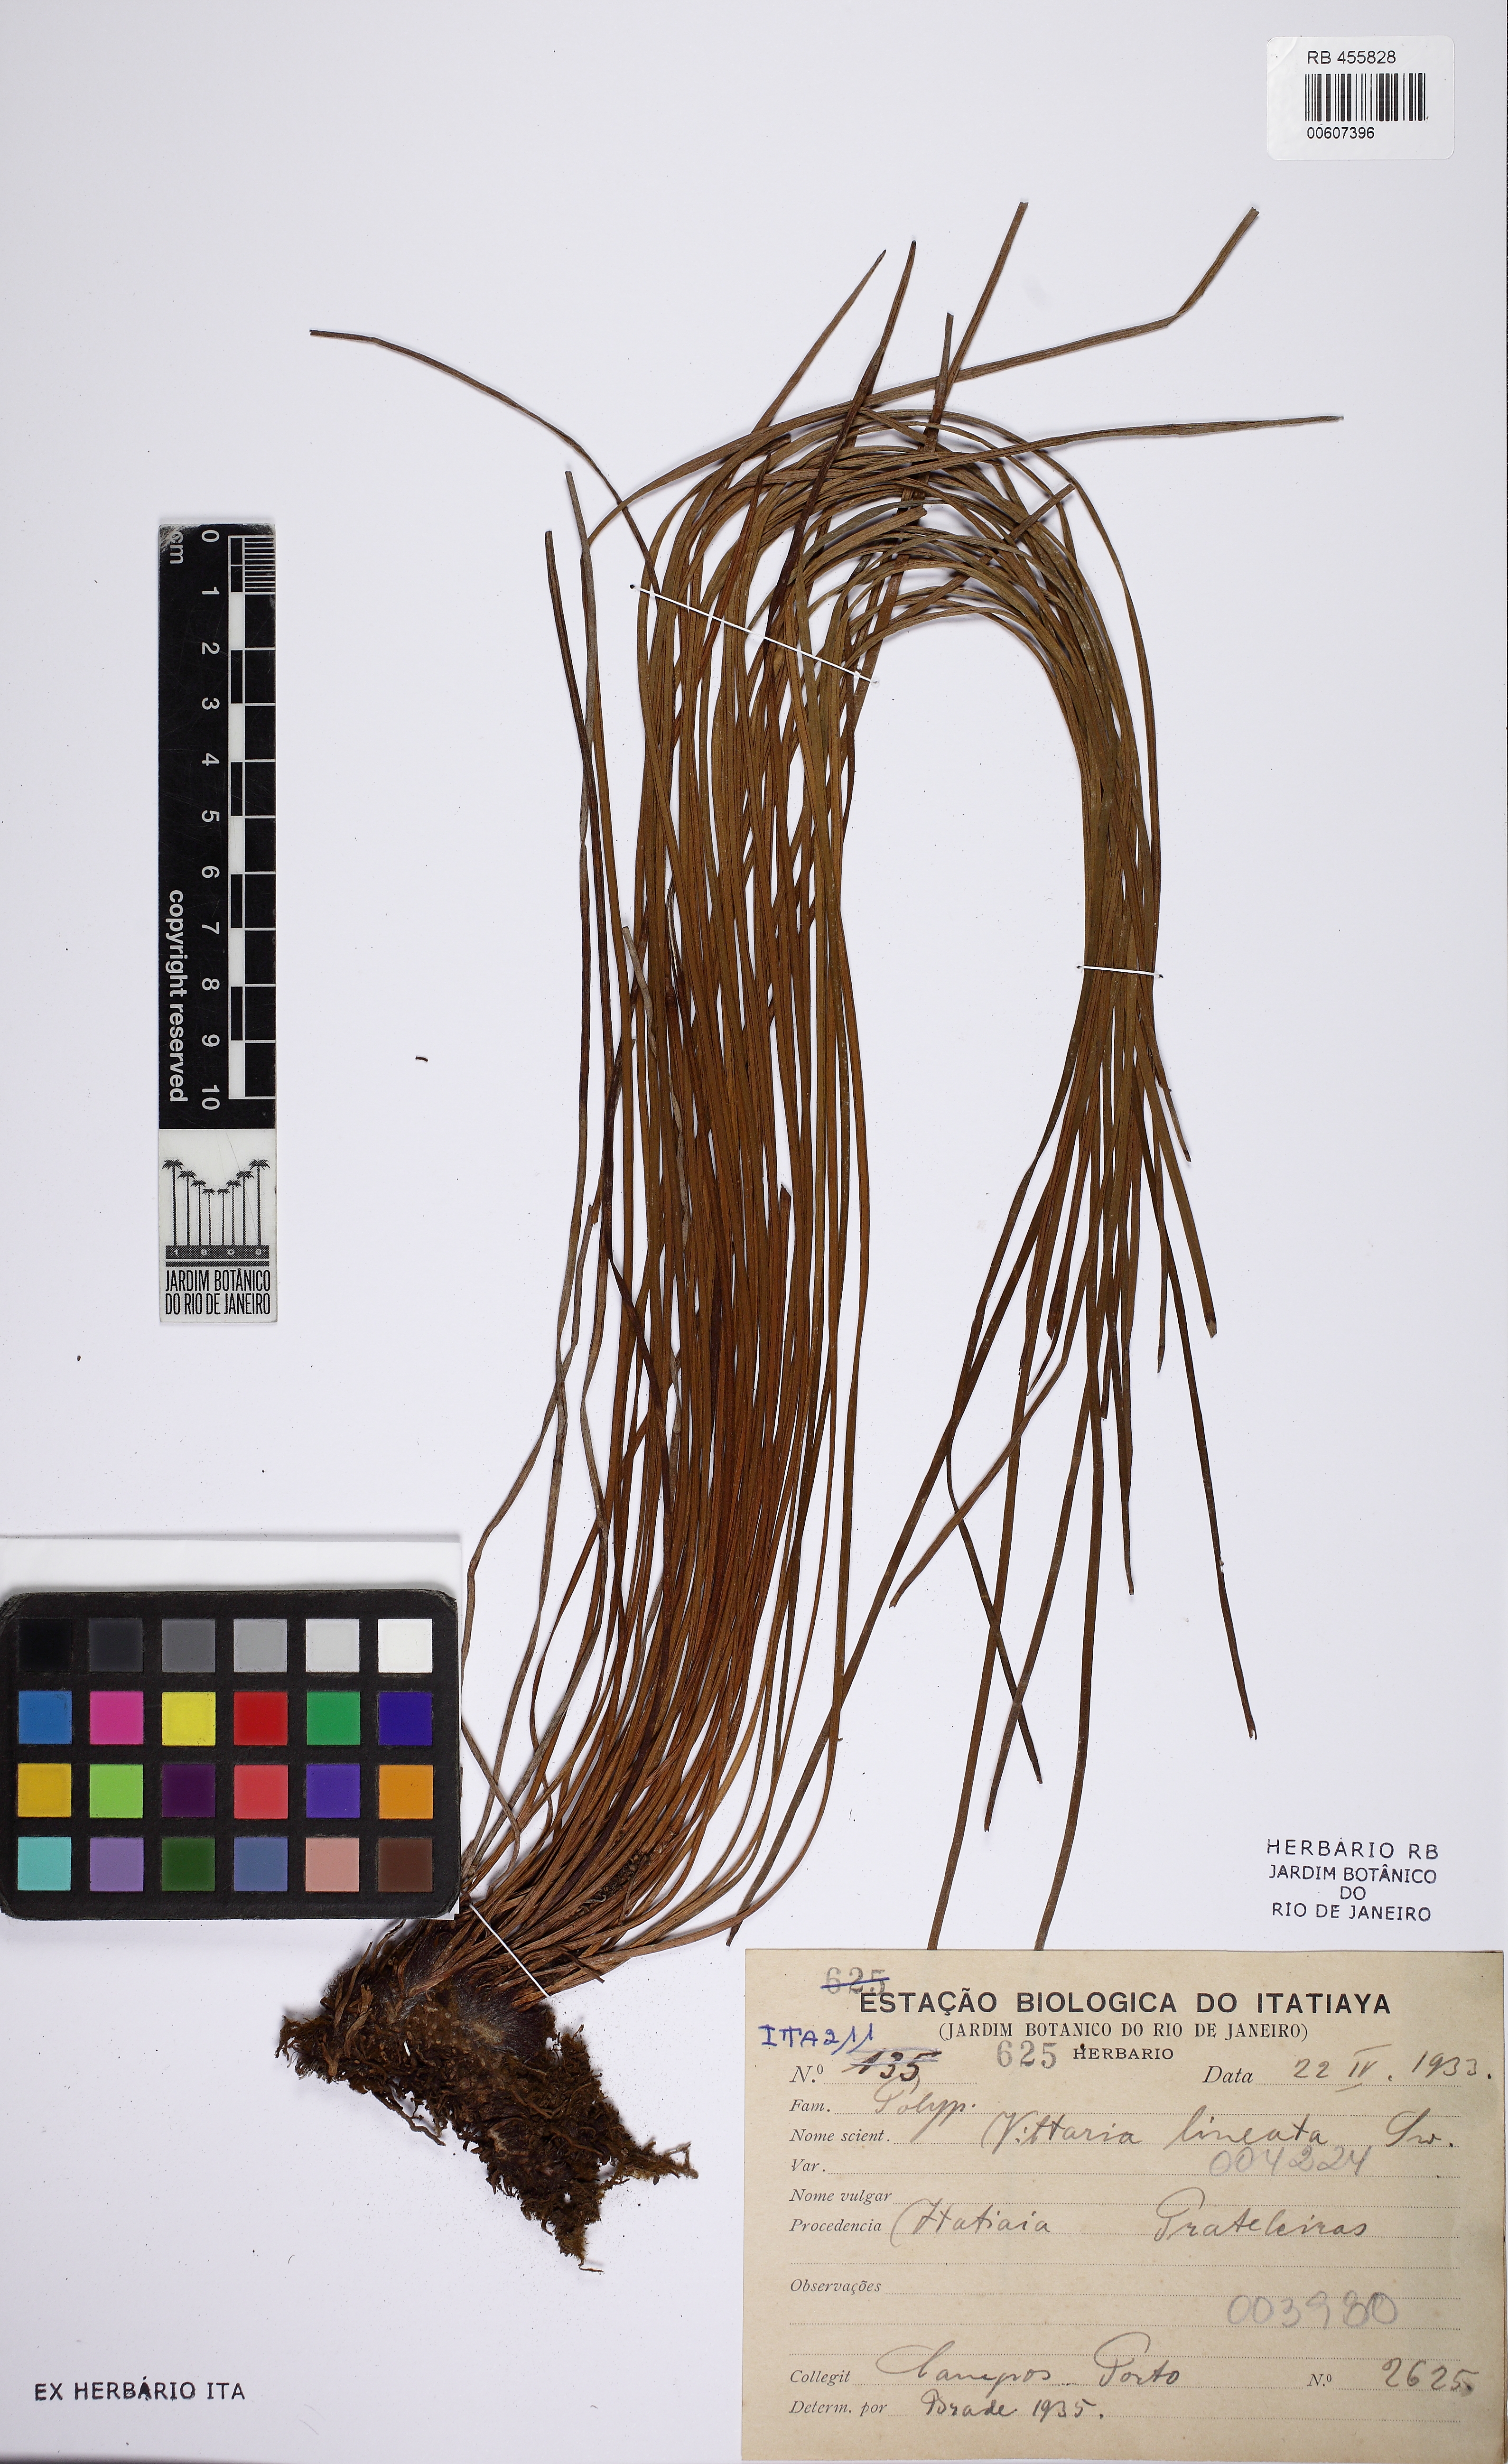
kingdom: Plantae
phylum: Tracheophyta
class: Polypodiopsida
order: Polypodiales
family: Pteridaceae
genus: Vittaria
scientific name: Vittaria lineata
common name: Shoestring fern
